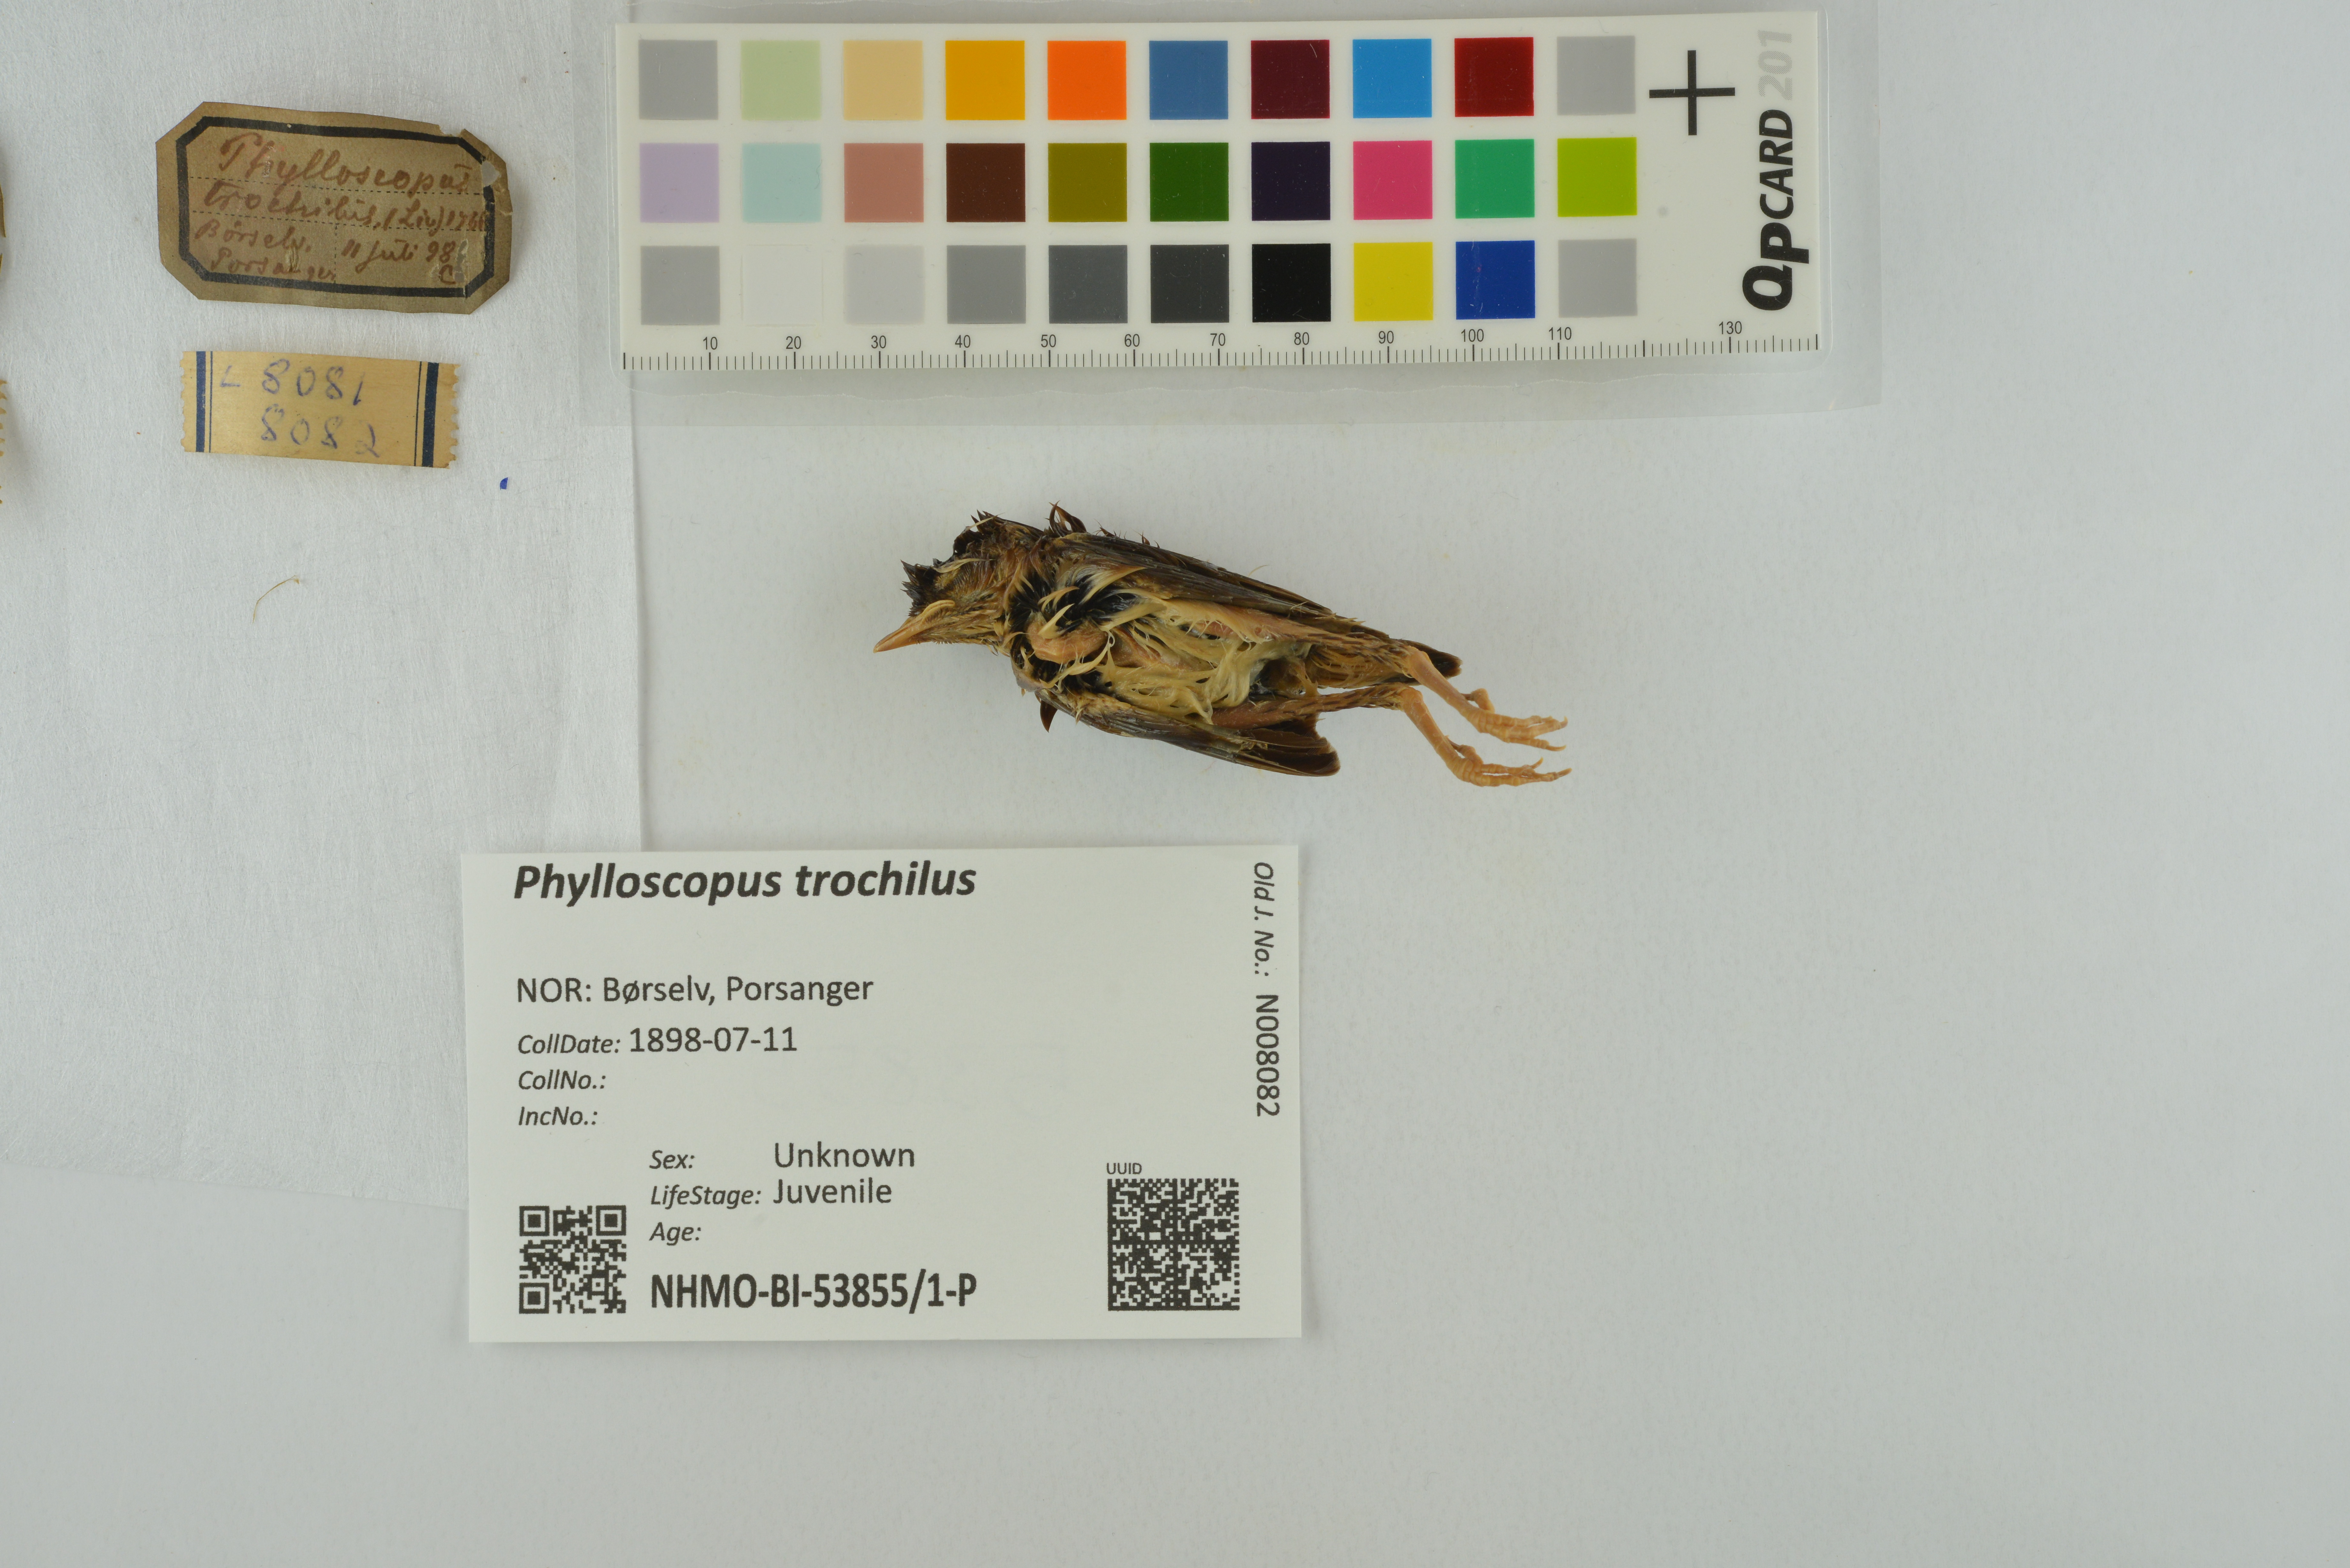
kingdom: Animalia
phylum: Chordata
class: Aves
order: Passeriformes
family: Phylloscopidae
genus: Phylloscopus
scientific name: Phylloscopus trochilus
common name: Willow warbler
